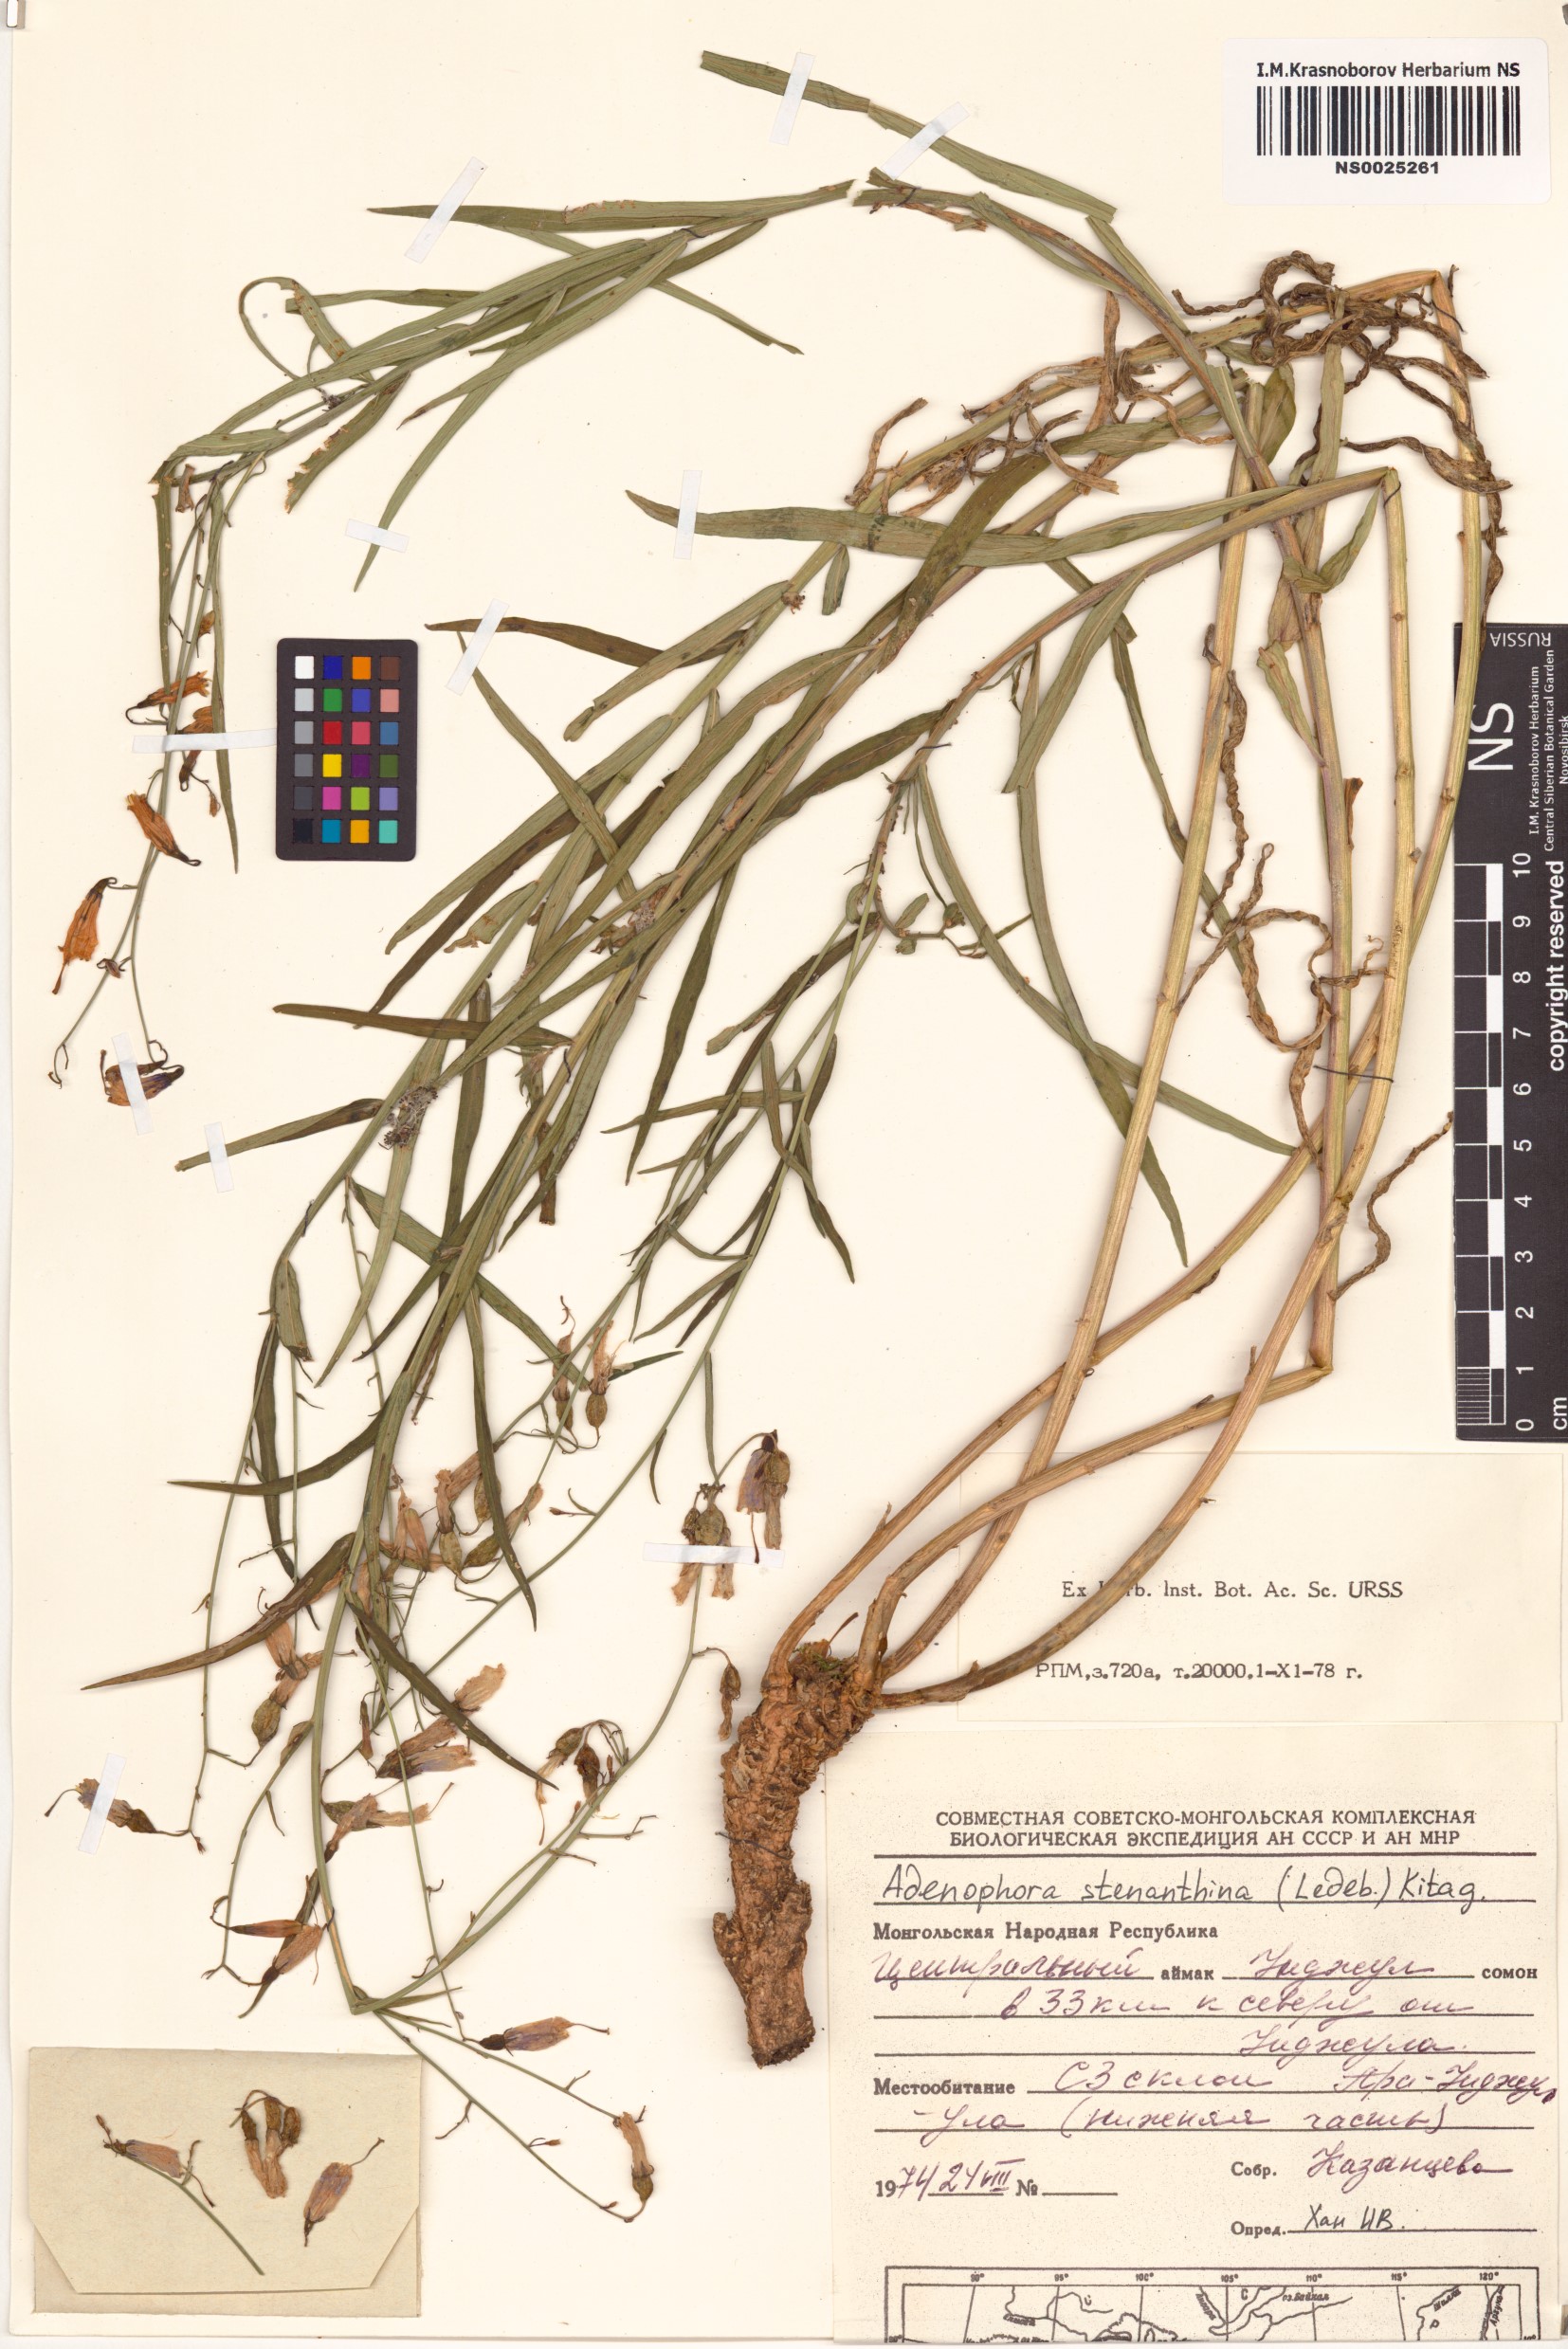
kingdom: Plantae
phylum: Tracheophyta
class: Magnoliopsida
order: Asterales
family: Campanulaceae
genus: Adenophora
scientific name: Adenophora stenanthina
